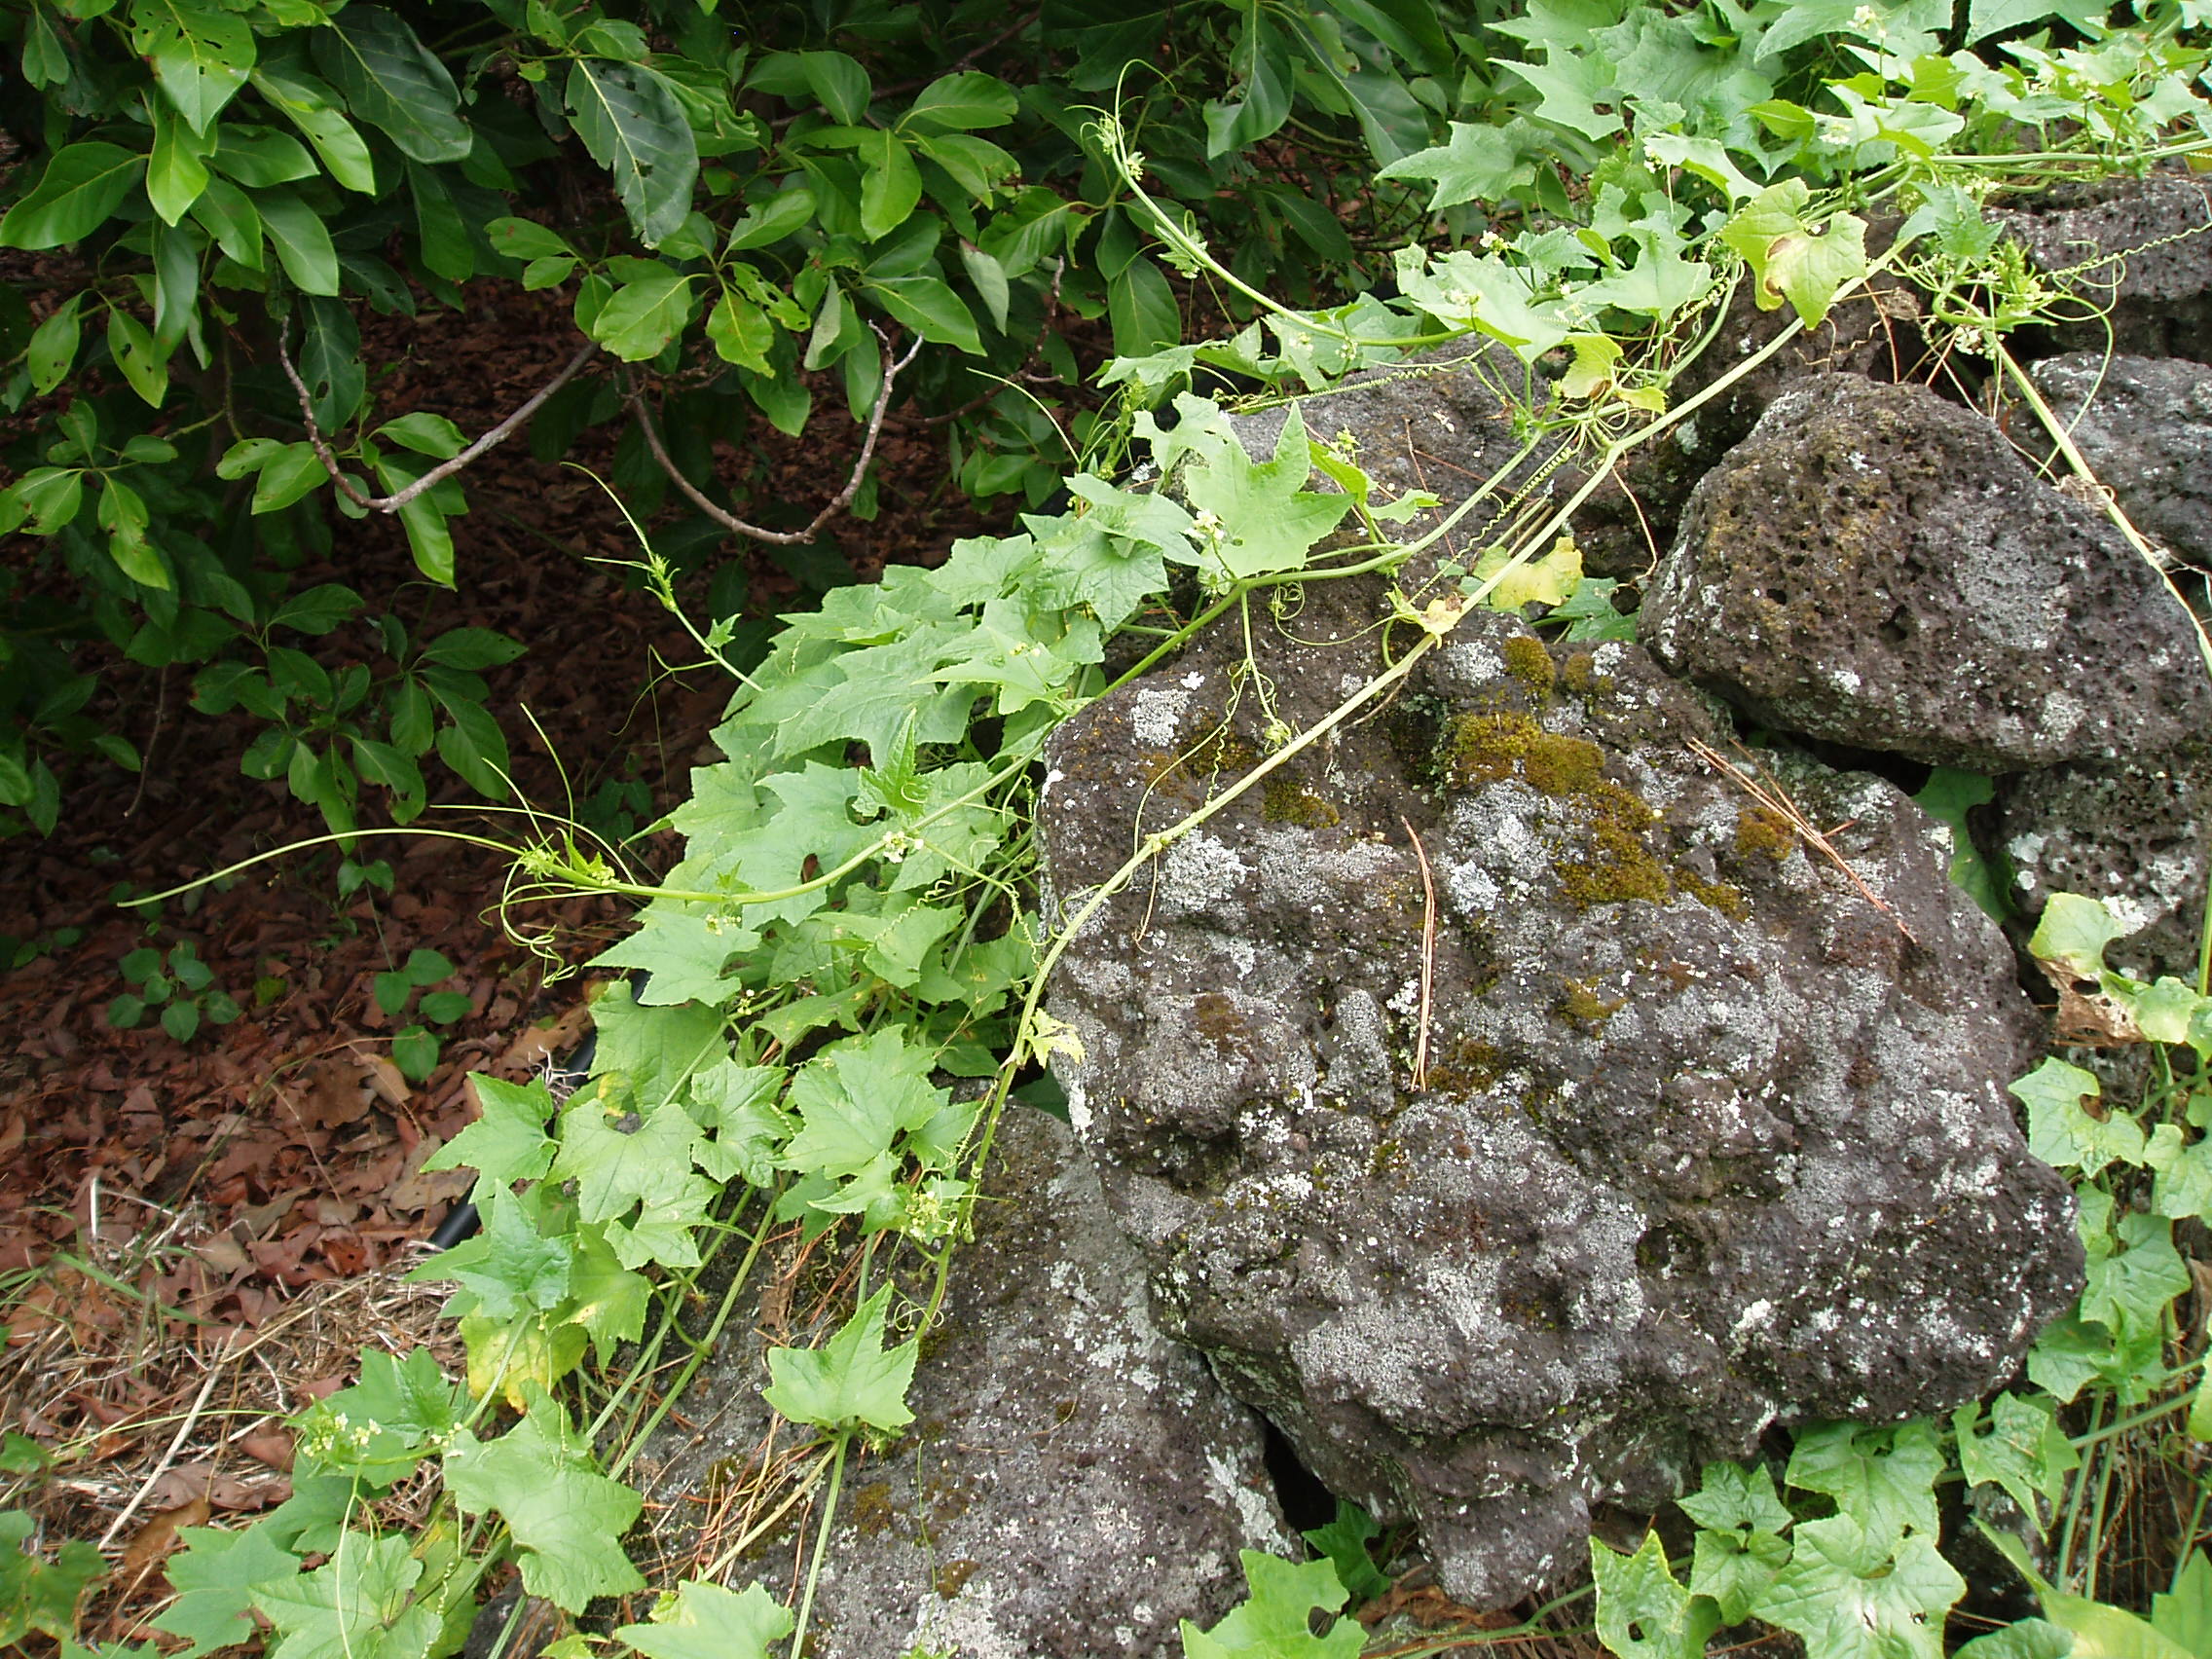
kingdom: Plantae
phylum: Tracheophyta
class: Magnoliopsida
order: Cucurbitales
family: Cucurbitaceae
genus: Sicyos
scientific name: Sicyos australis
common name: Angle-cucumber
